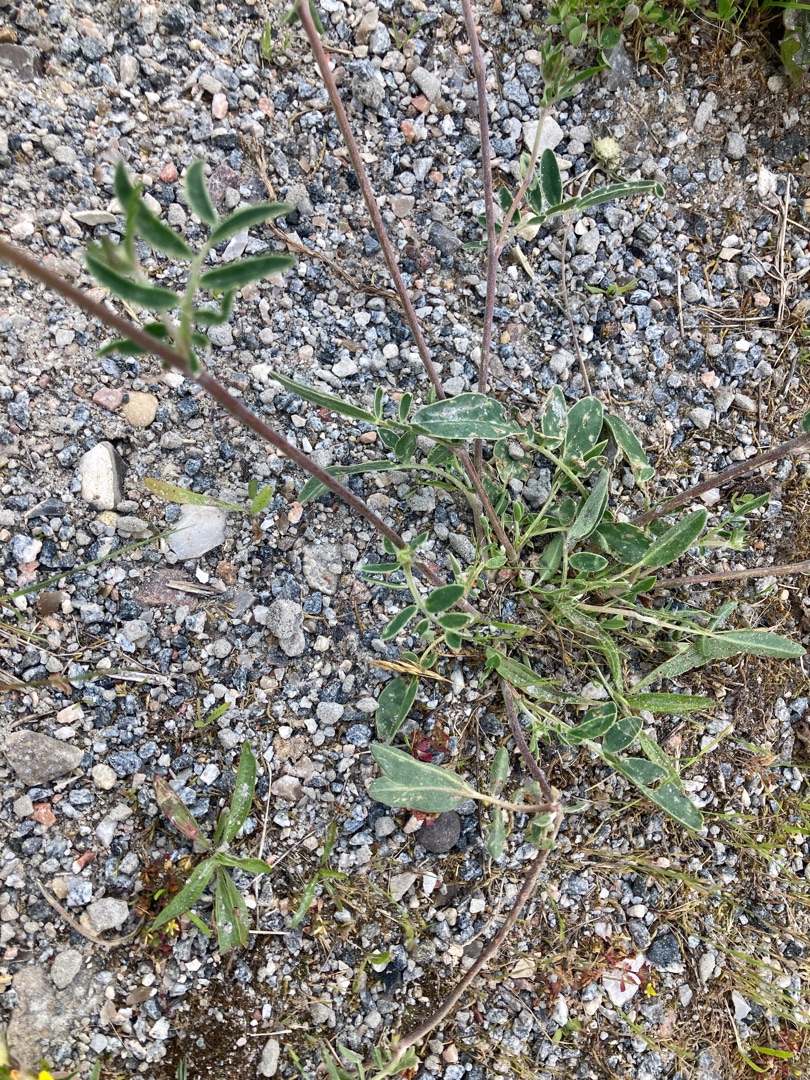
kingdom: Plantae
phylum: Tracheophyta
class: Magnoliopsida
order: Fabales
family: Fabaceae
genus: Anthyllis
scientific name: Anthyllis vulneraria
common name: Rundbælg
